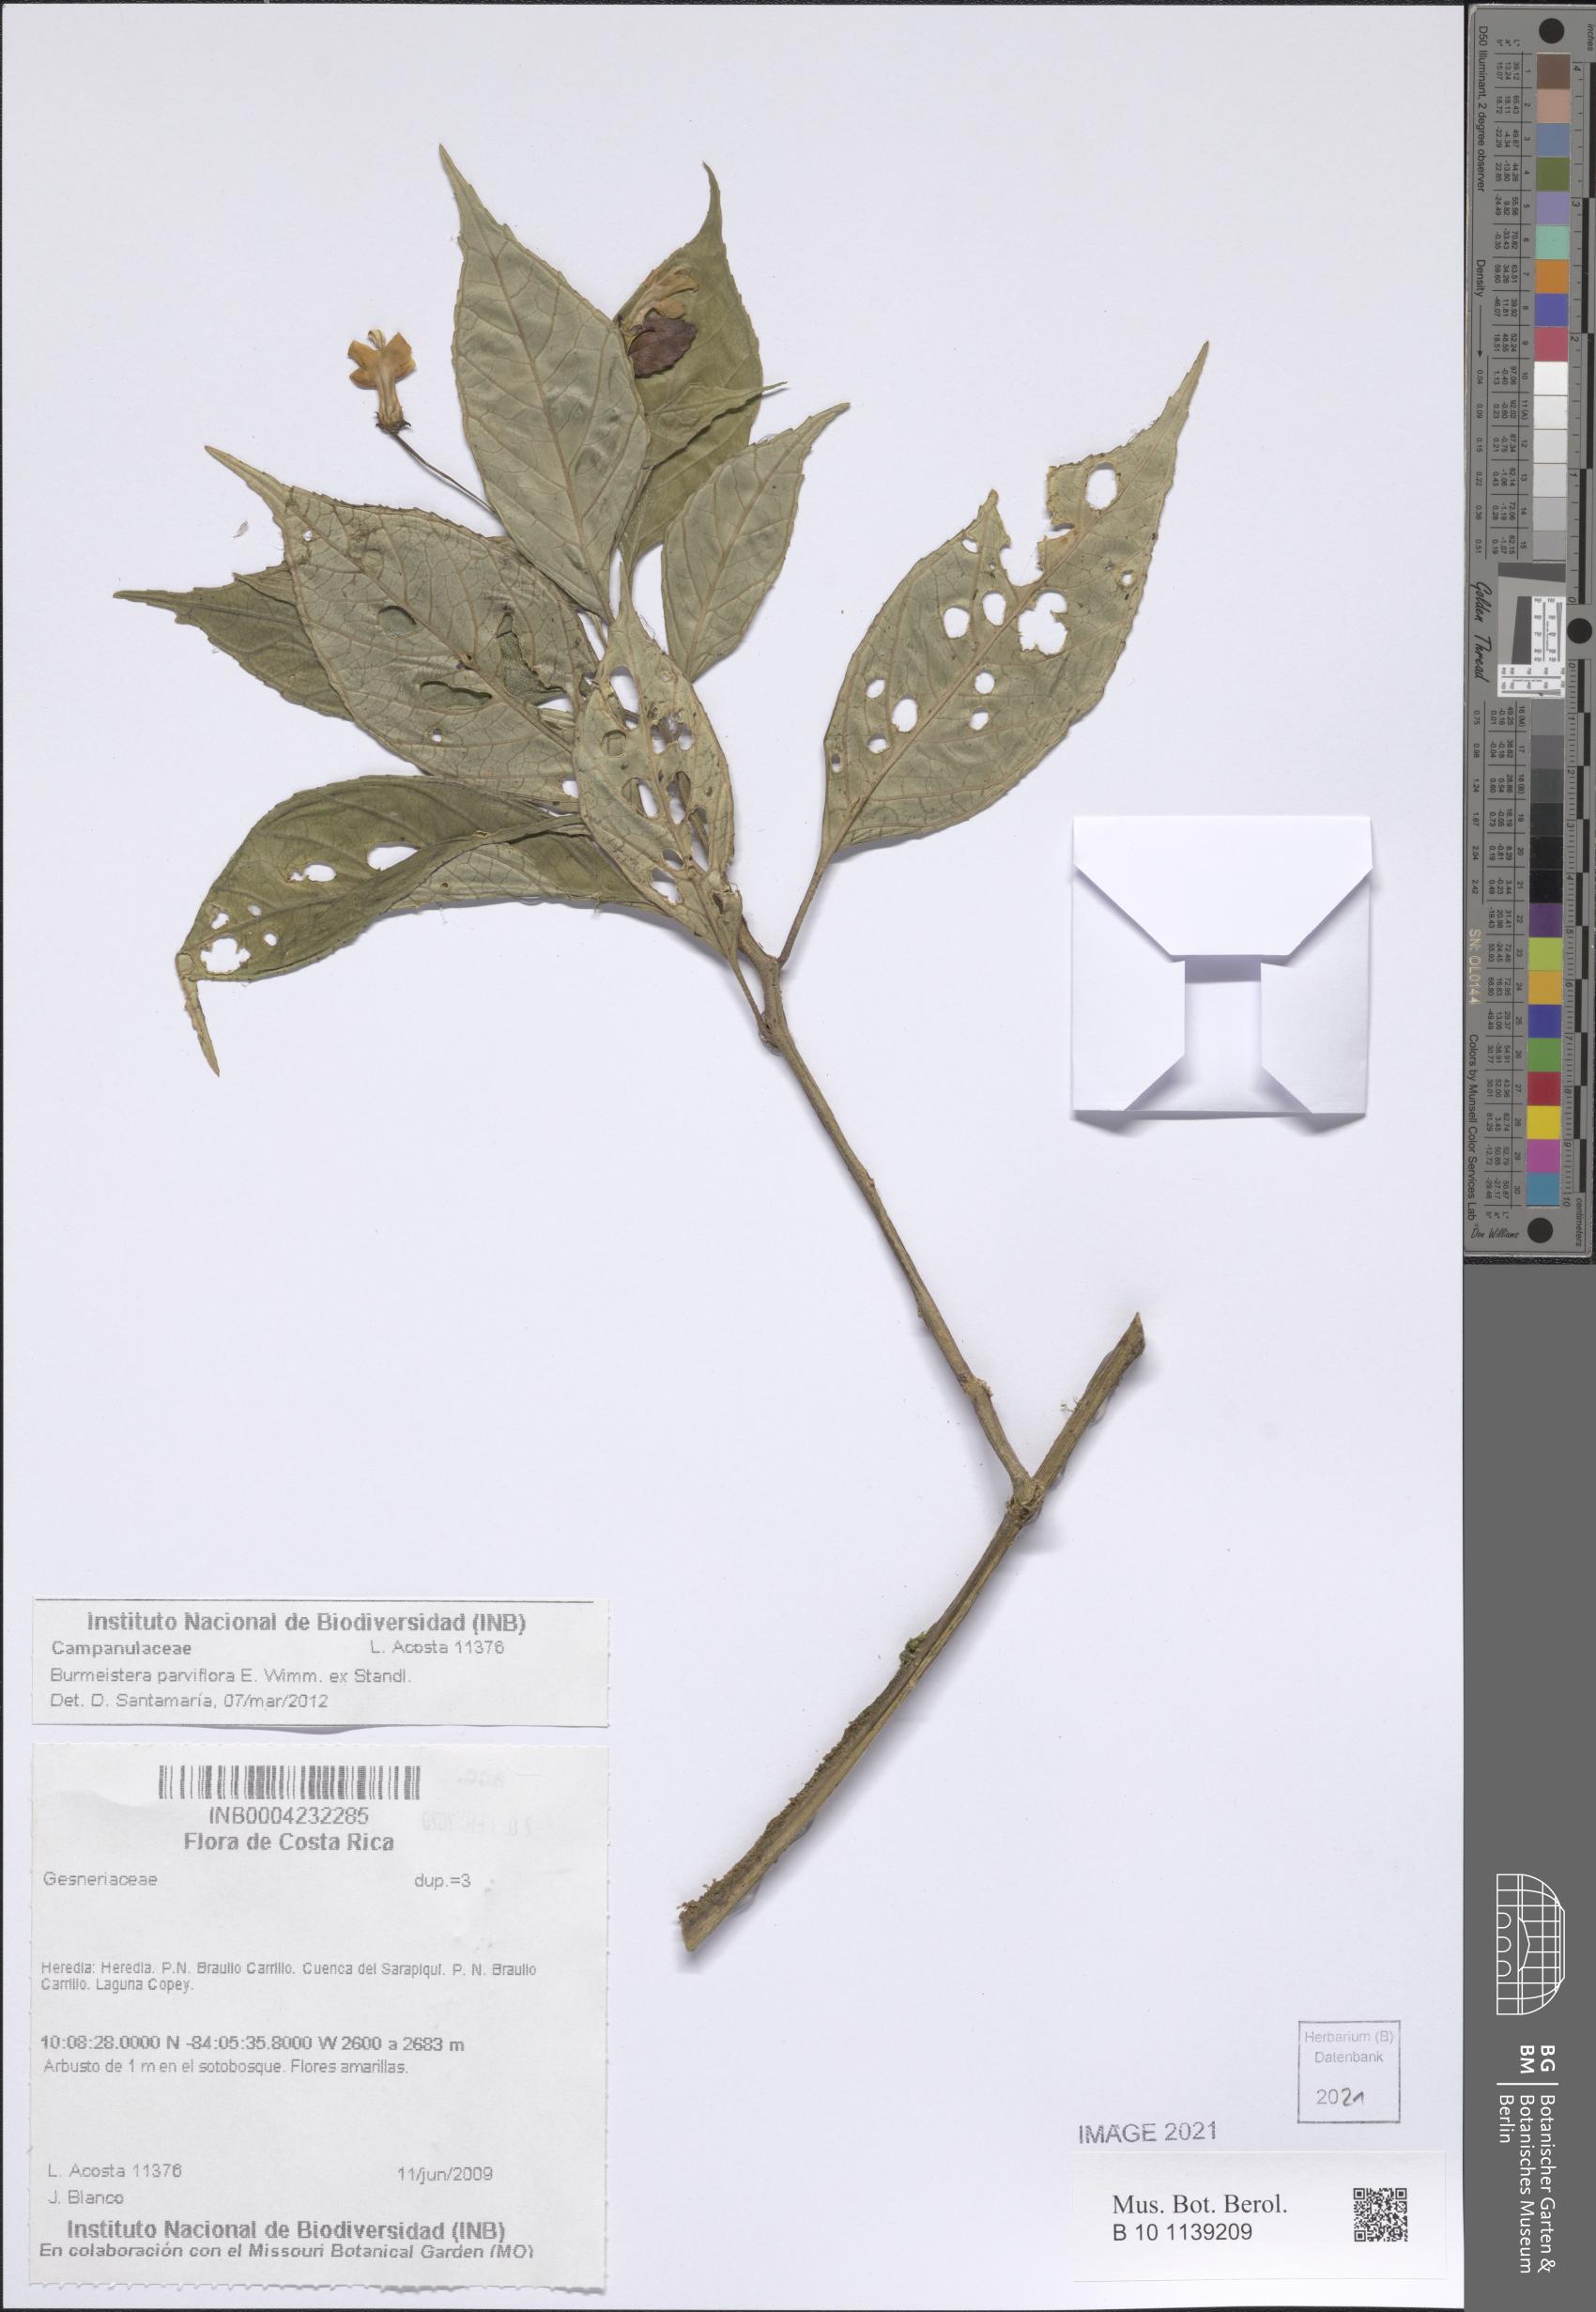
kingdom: Plantae
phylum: Tracheophyta
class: Magnoliopsida
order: Asterales
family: Campanulaceae
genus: Burmeistera
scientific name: Burmeistera parviflora
